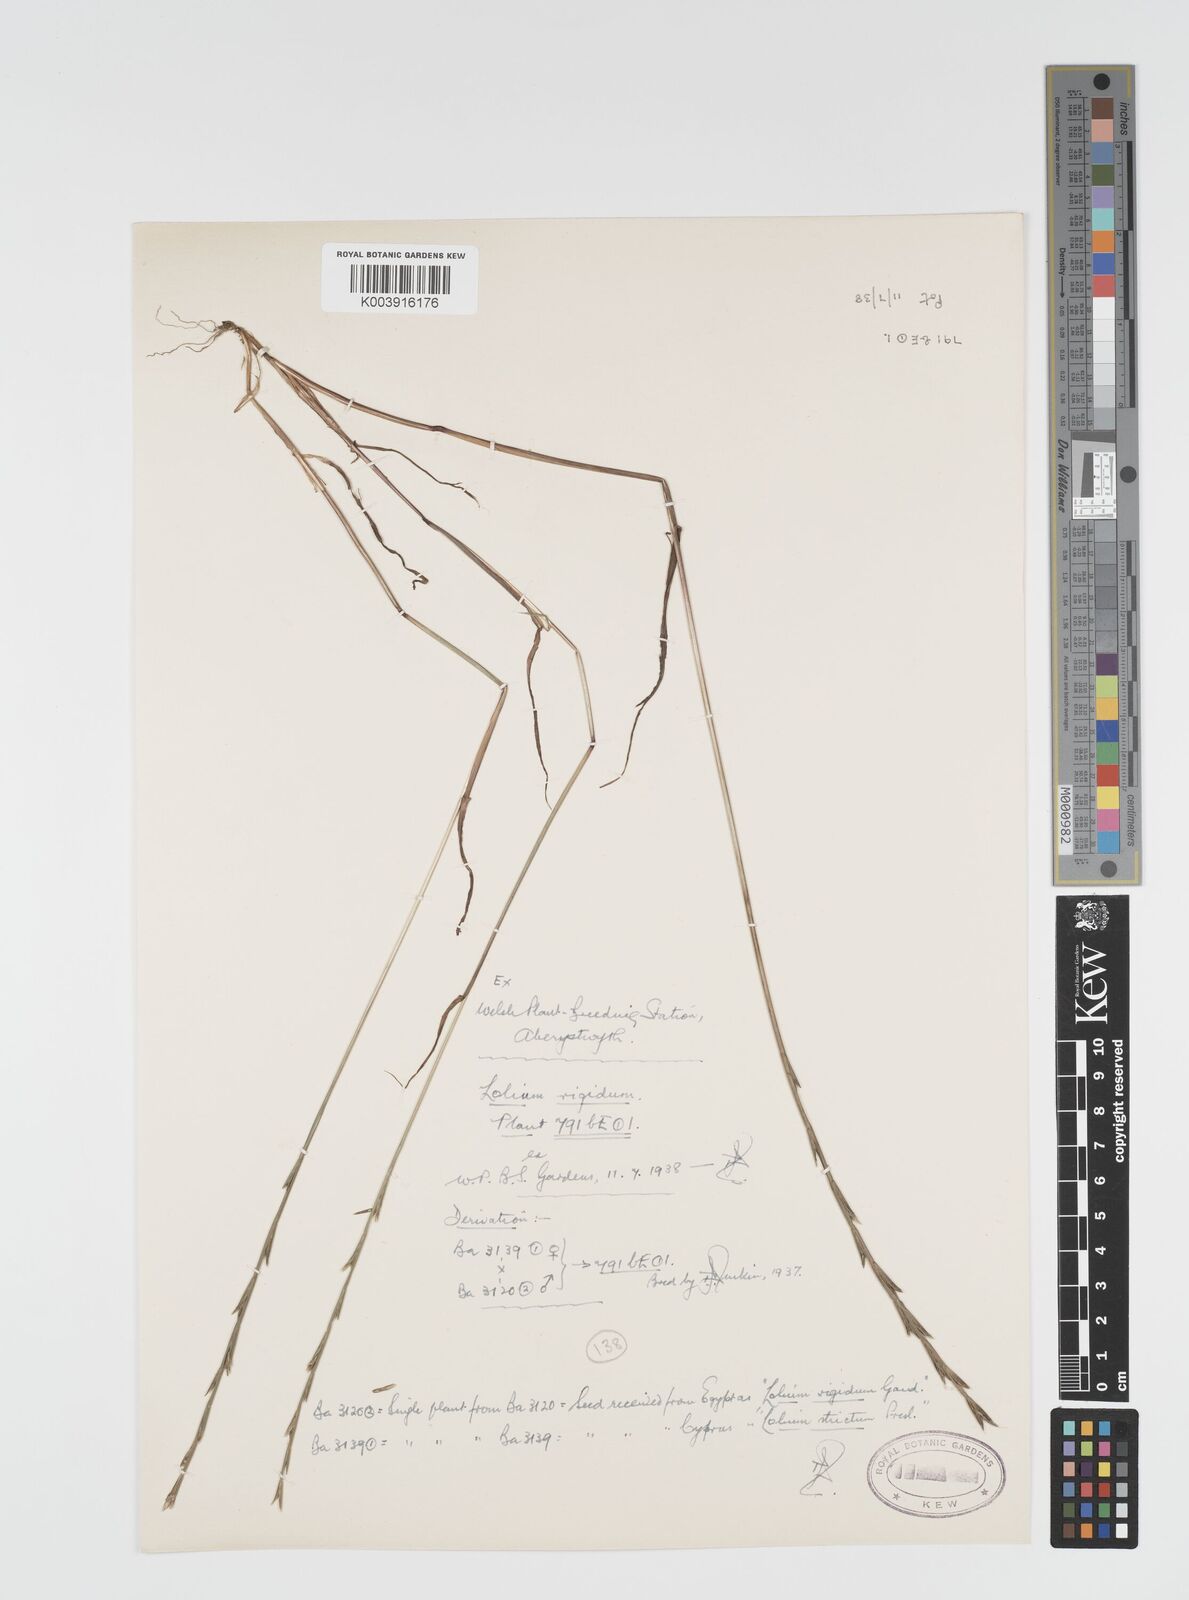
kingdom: Plantae
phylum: Tracheophyta
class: Liliopsida
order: Poales
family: Poaceae
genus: Lolium
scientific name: Lolium rigidum
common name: Wimmera ryegrass
